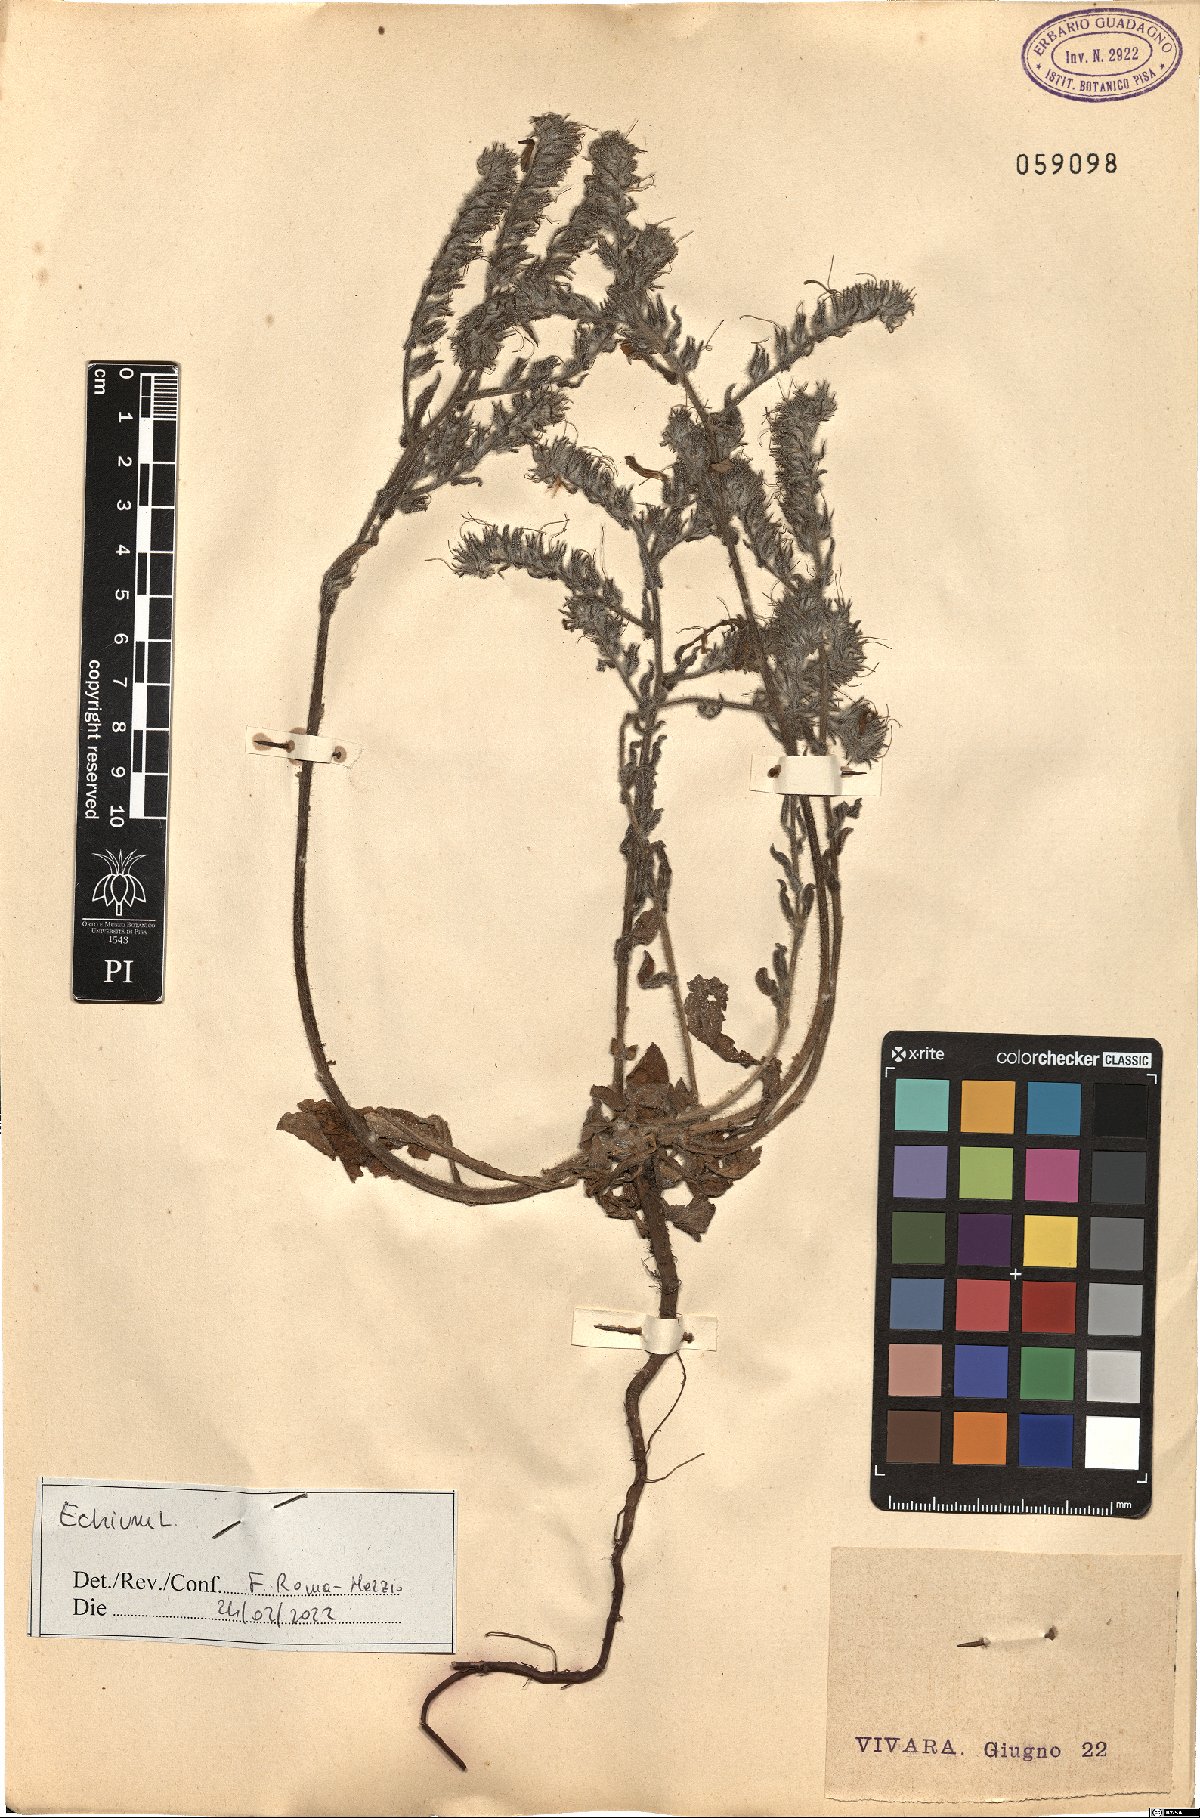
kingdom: Plantae
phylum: Tracheophyta
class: Magnoliopsida
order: Boraginales
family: Boraginaceae
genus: Echium
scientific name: Echium
